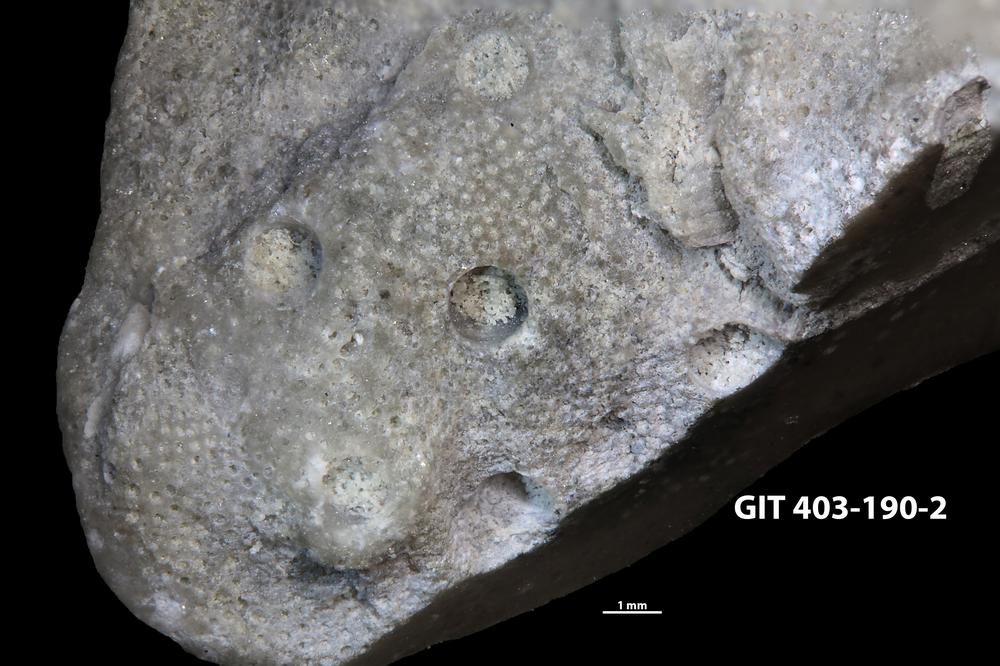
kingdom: Animalia
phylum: Cnidaria
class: Hydrozoa
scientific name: Hydrozoa
